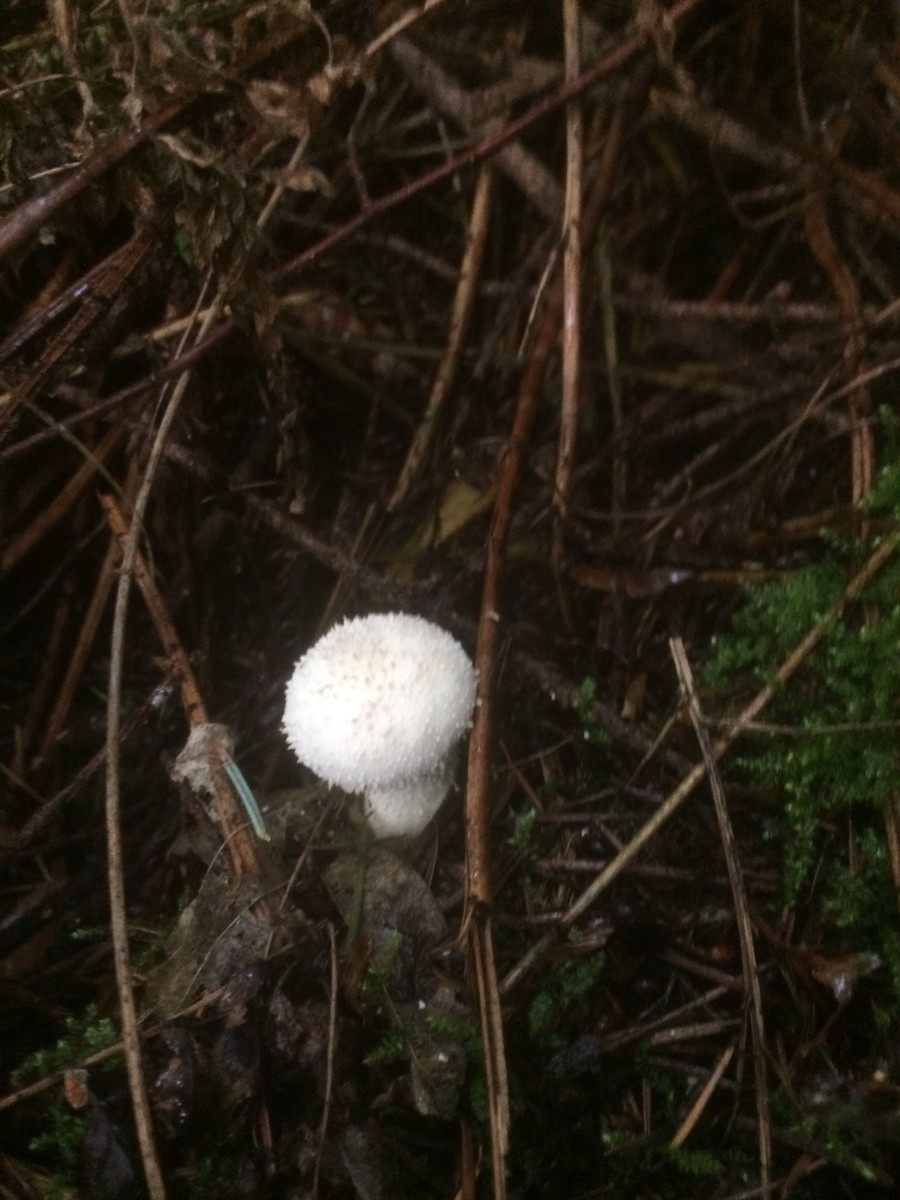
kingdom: Fungi
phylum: Basidiomycota
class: Agaricomycetes
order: Agaricales
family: Lycoperdaceae
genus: Lycoperdon
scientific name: Lycoperdon perlatum
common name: krystal-støvbold
